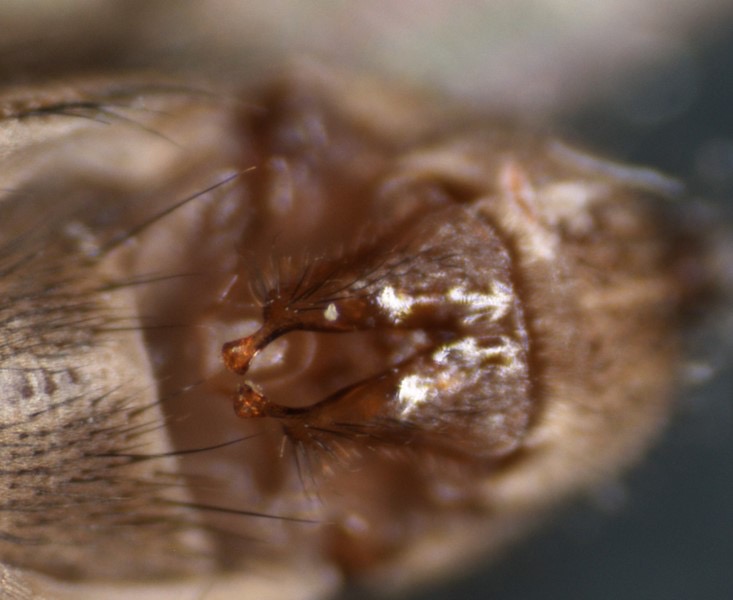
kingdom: Animalia
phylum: Arthropoda
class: Insecta
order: Diptera
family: Sciomyzidae
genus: Tetanocera
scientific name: Tetanocera elata
